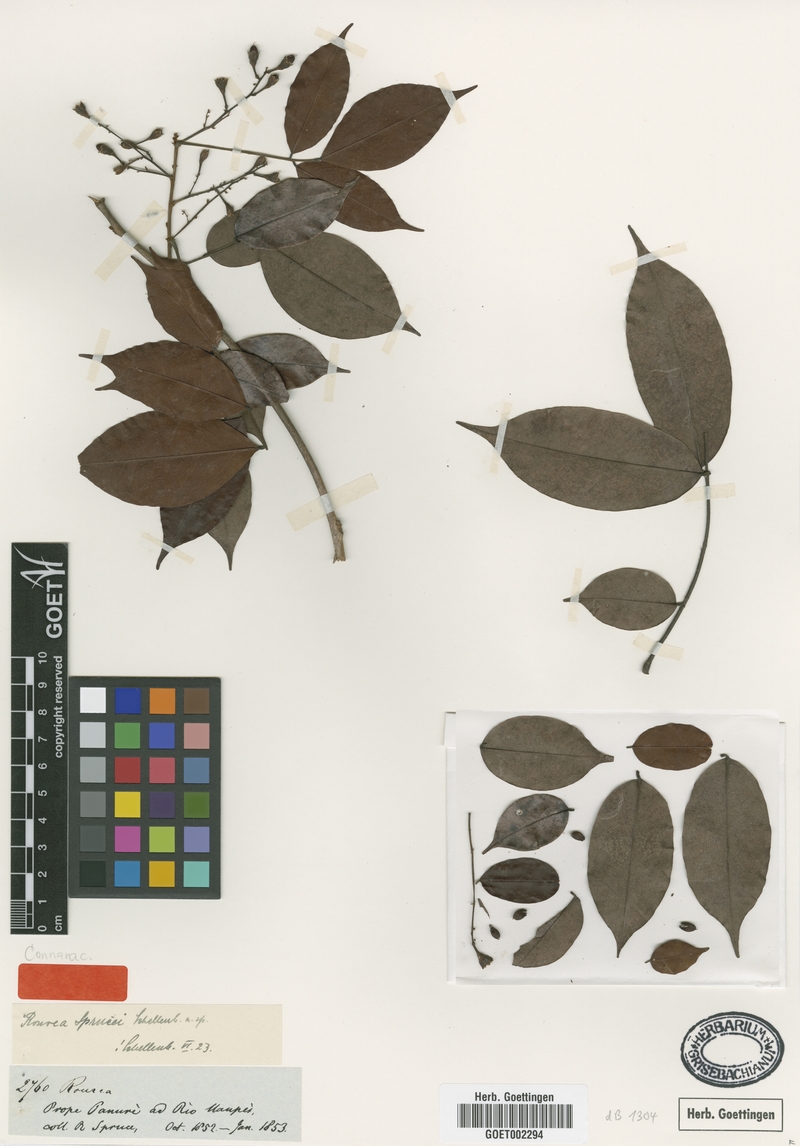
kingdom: Plantae
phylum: Tracheophyta
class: Magnoliopsida
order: Oxalidales
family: Connaraceae
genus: Rourea
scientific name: Rourea sprucei
